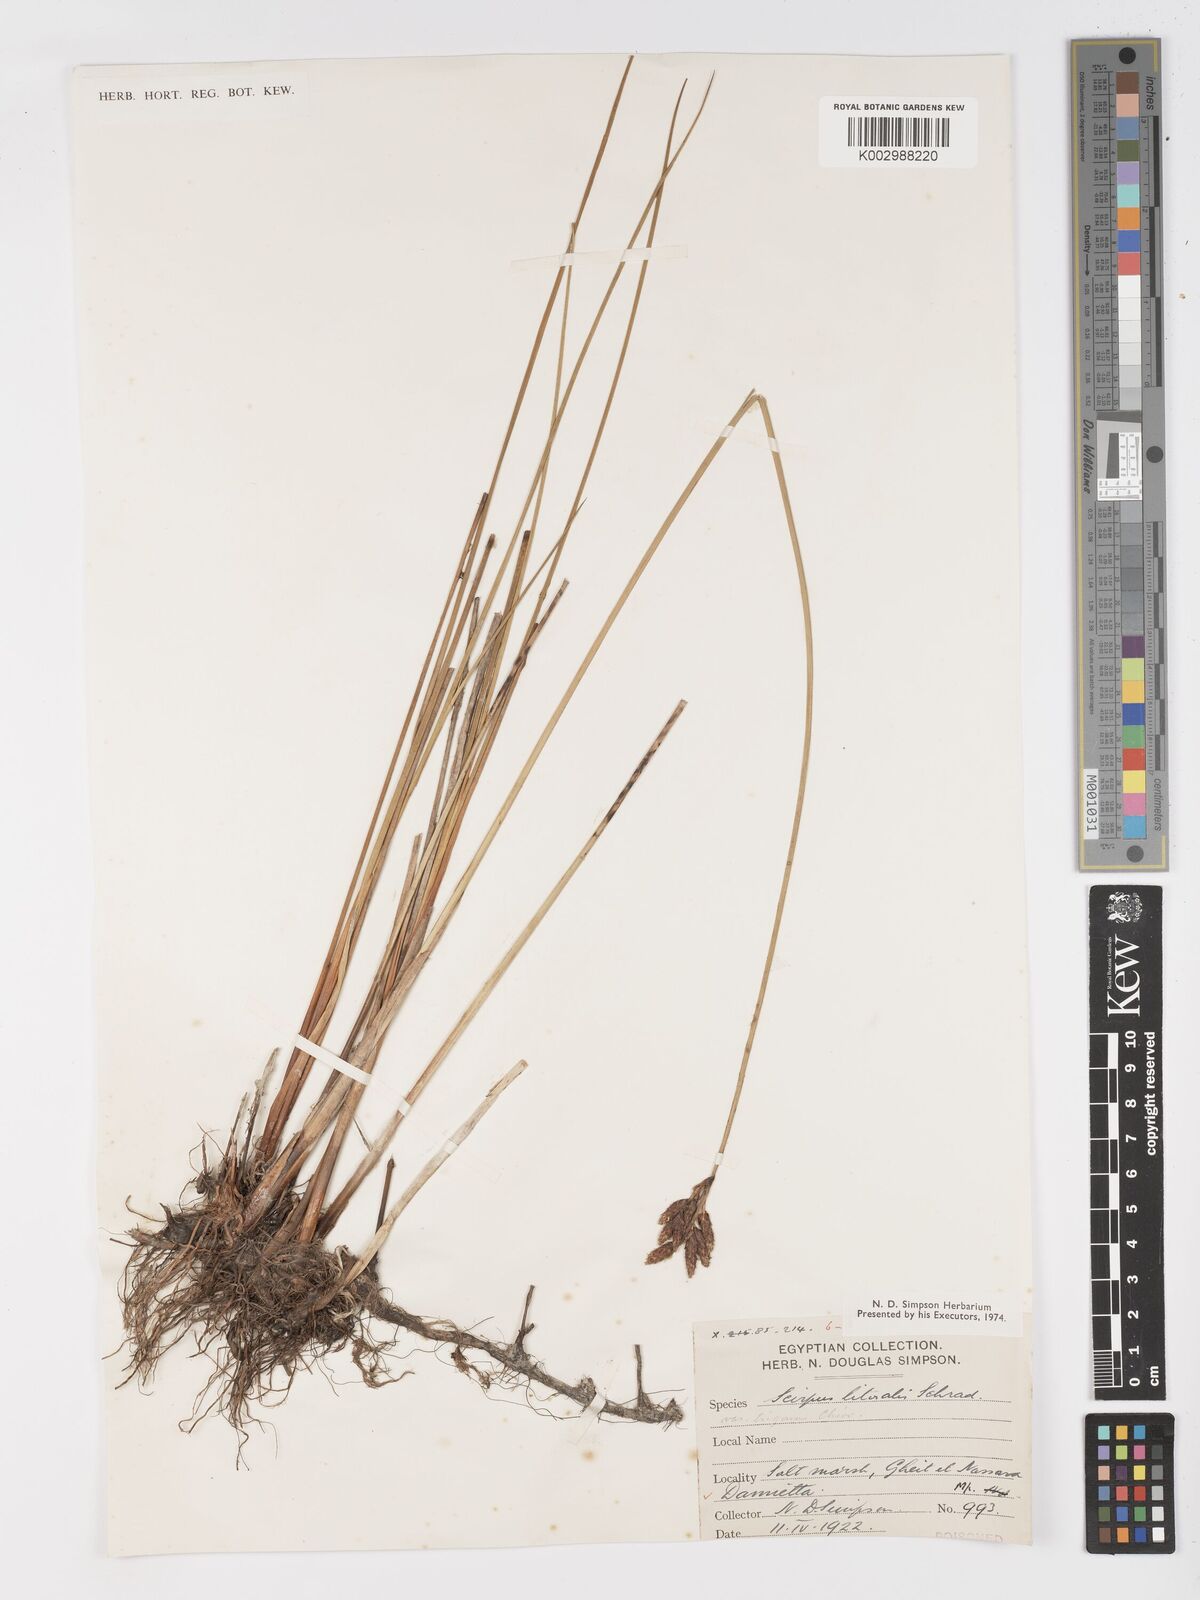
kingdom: Plantae
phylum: Tracheophyta
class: Liliopsida
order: Poales
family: Cyperaceae
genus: Schoenoplectus
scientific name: Schoenoplectus litoralis
